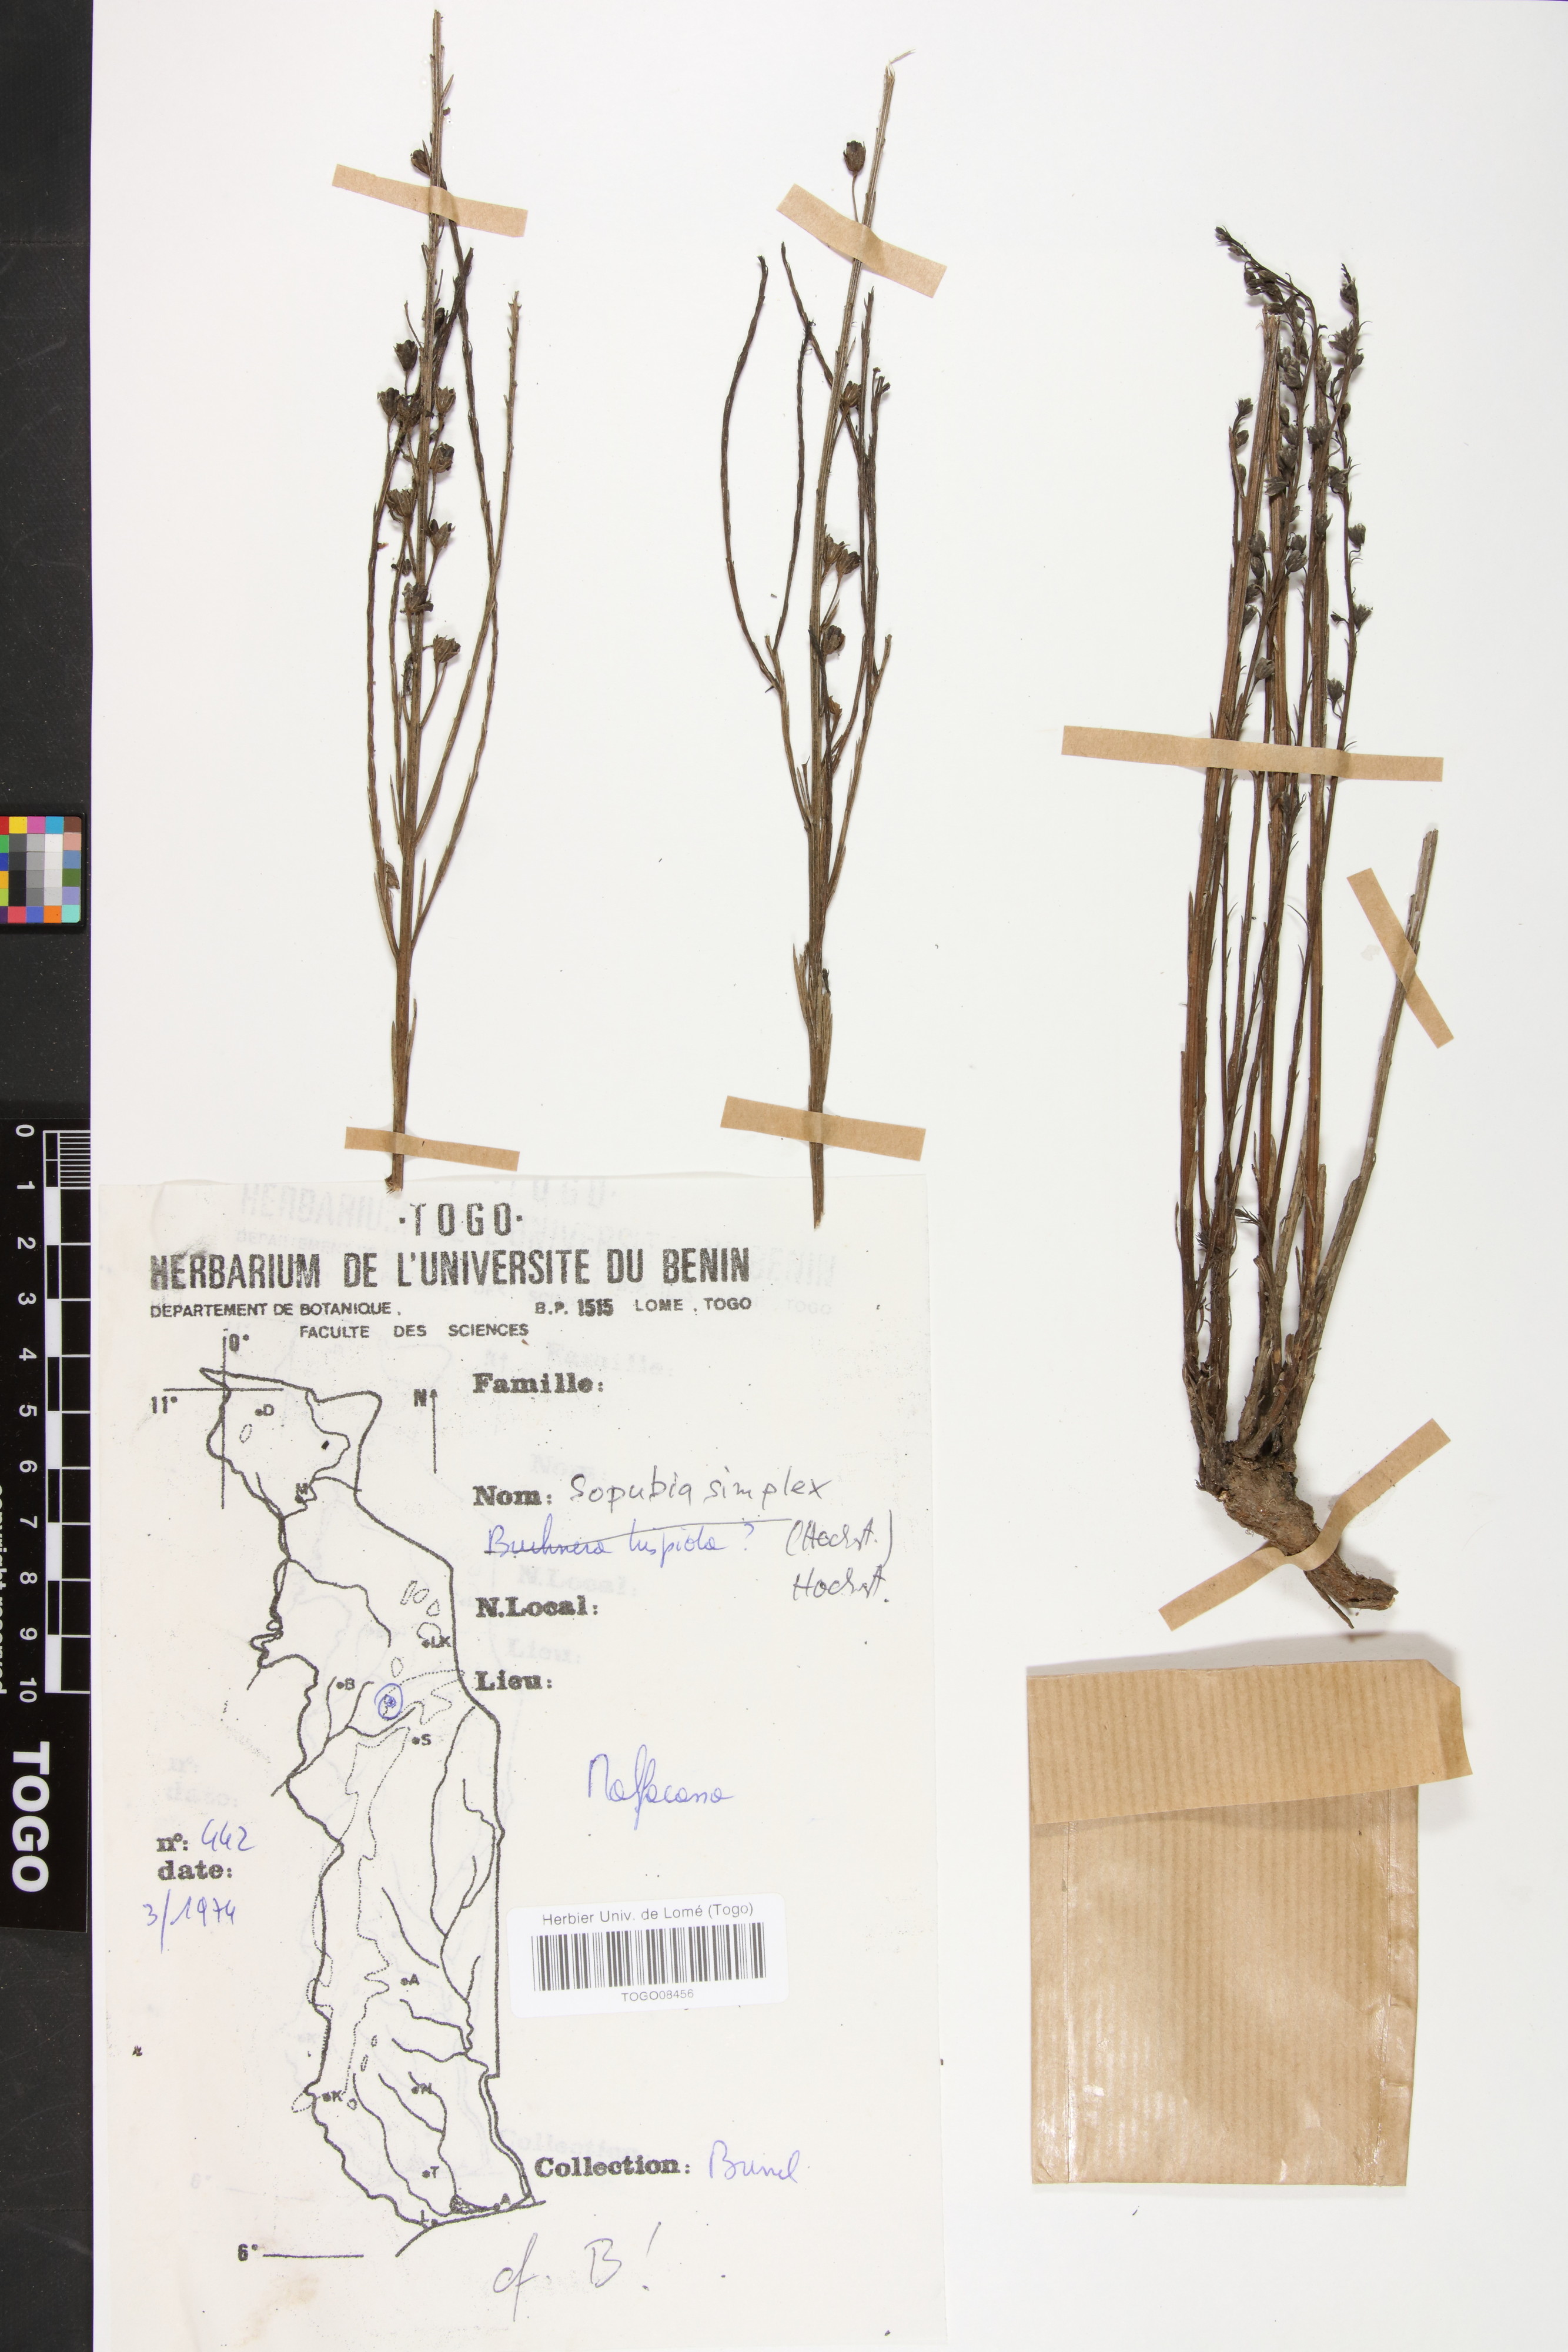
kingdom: Plantae
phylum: Tracheophyta
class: Magnoliopsida
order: Lamiales
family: Orobanchaceae
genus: Sopubia
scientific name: Sopubia simplex
